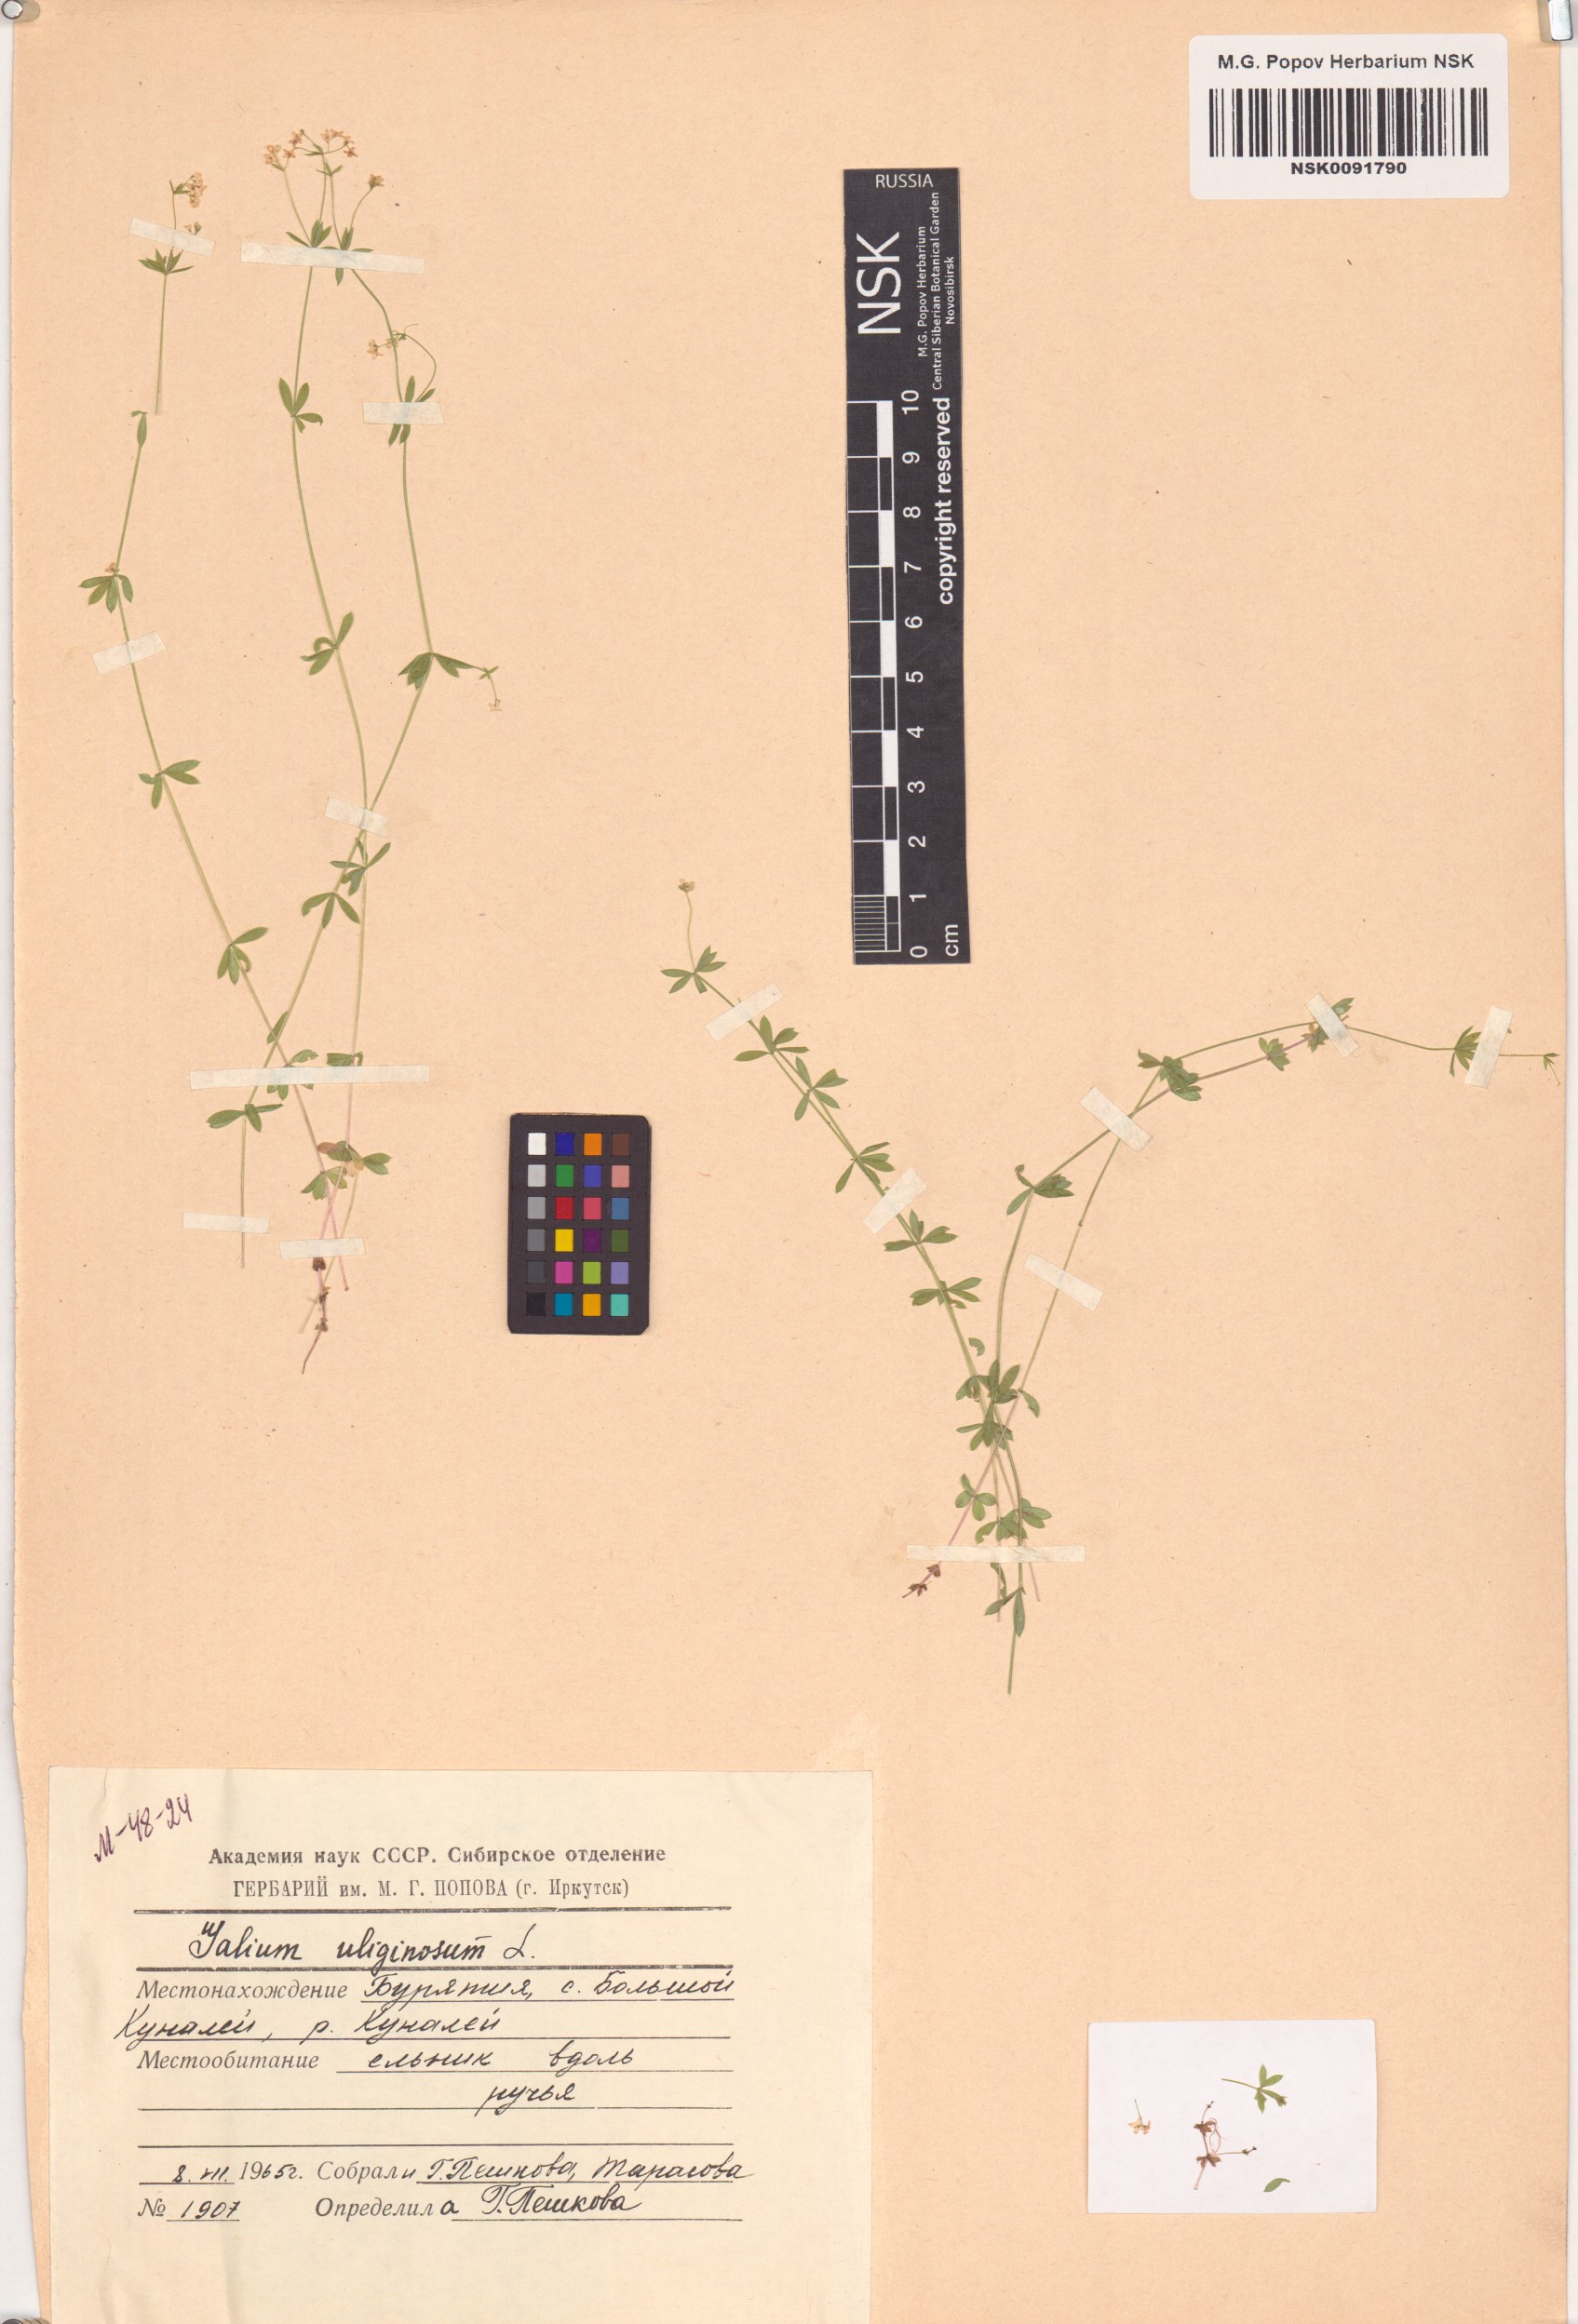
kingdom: Plantae
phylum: Tracheophyta
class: Magnoliopsida
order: Gentianales
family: Rubiaceae
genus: Galium
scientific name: Galium uliginosum
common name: Fen bedstraw
